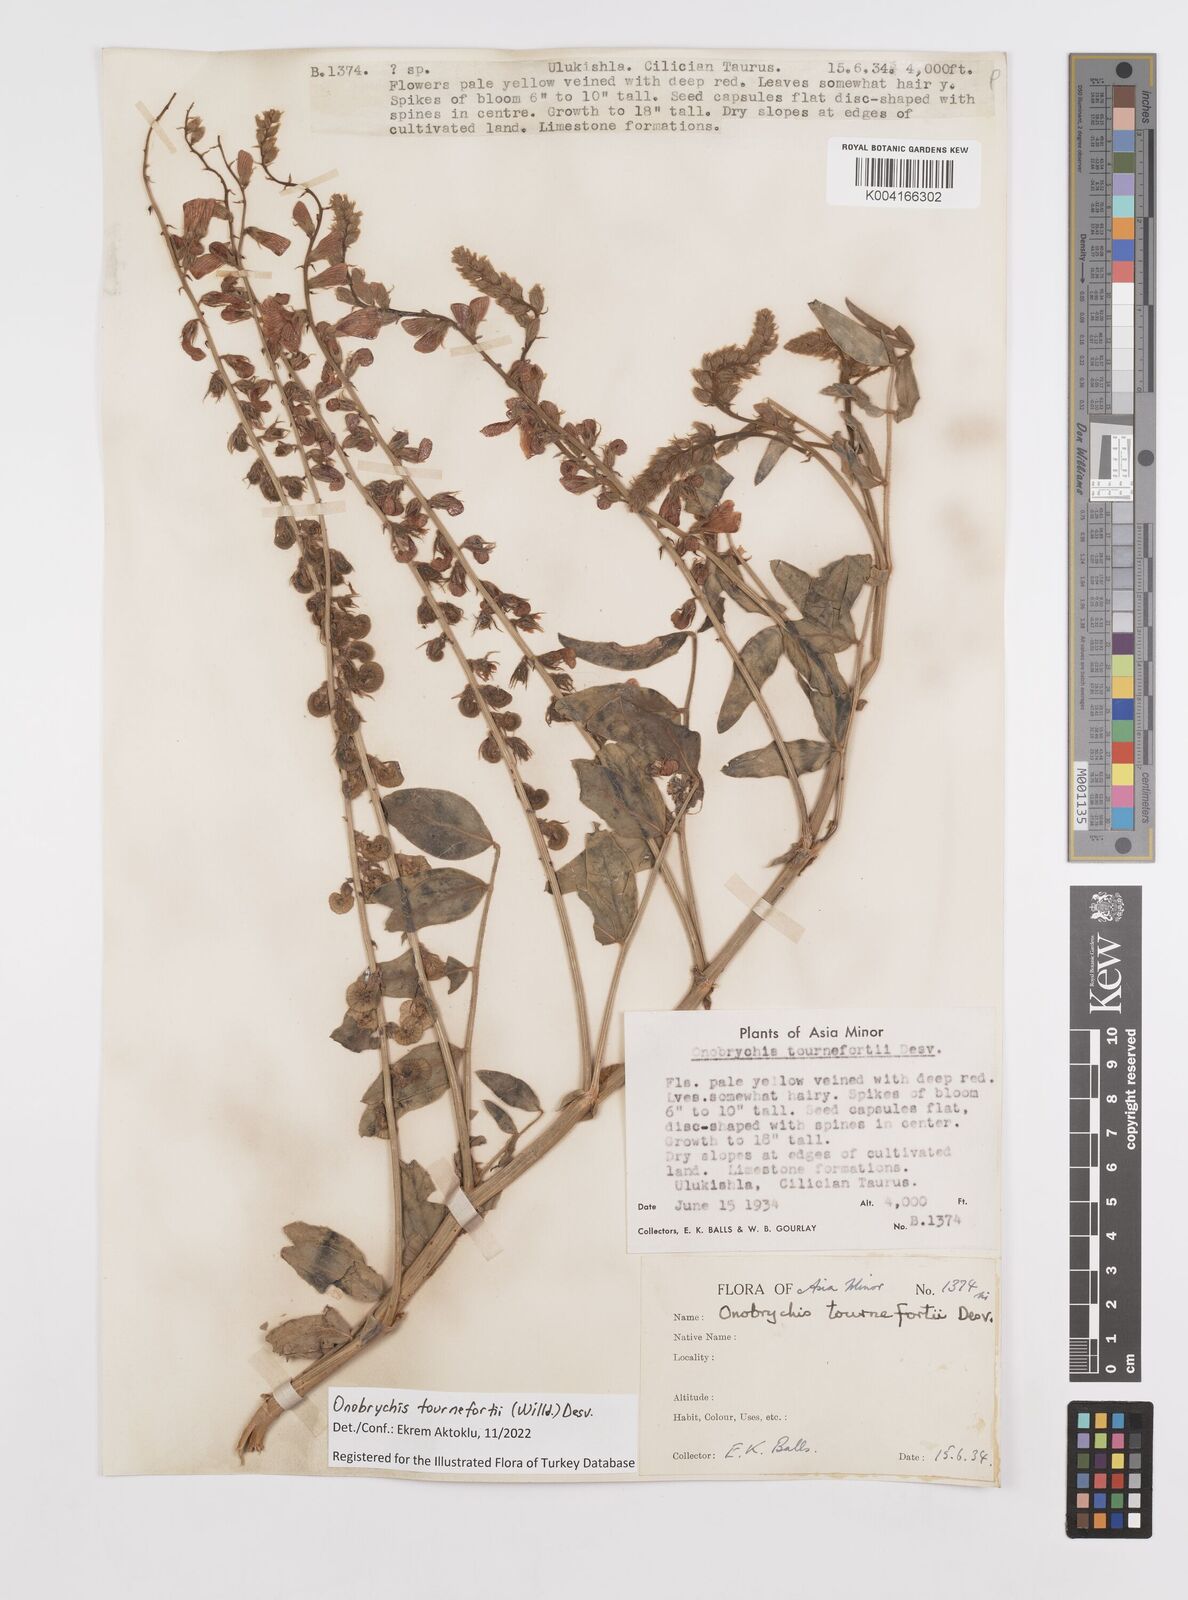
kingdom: Plantae
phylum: Tracheophyta
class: Magnoliopsida
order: Fabales
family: Fabaceae
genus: Onobrychis
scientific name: Onobrychis tournefortii
